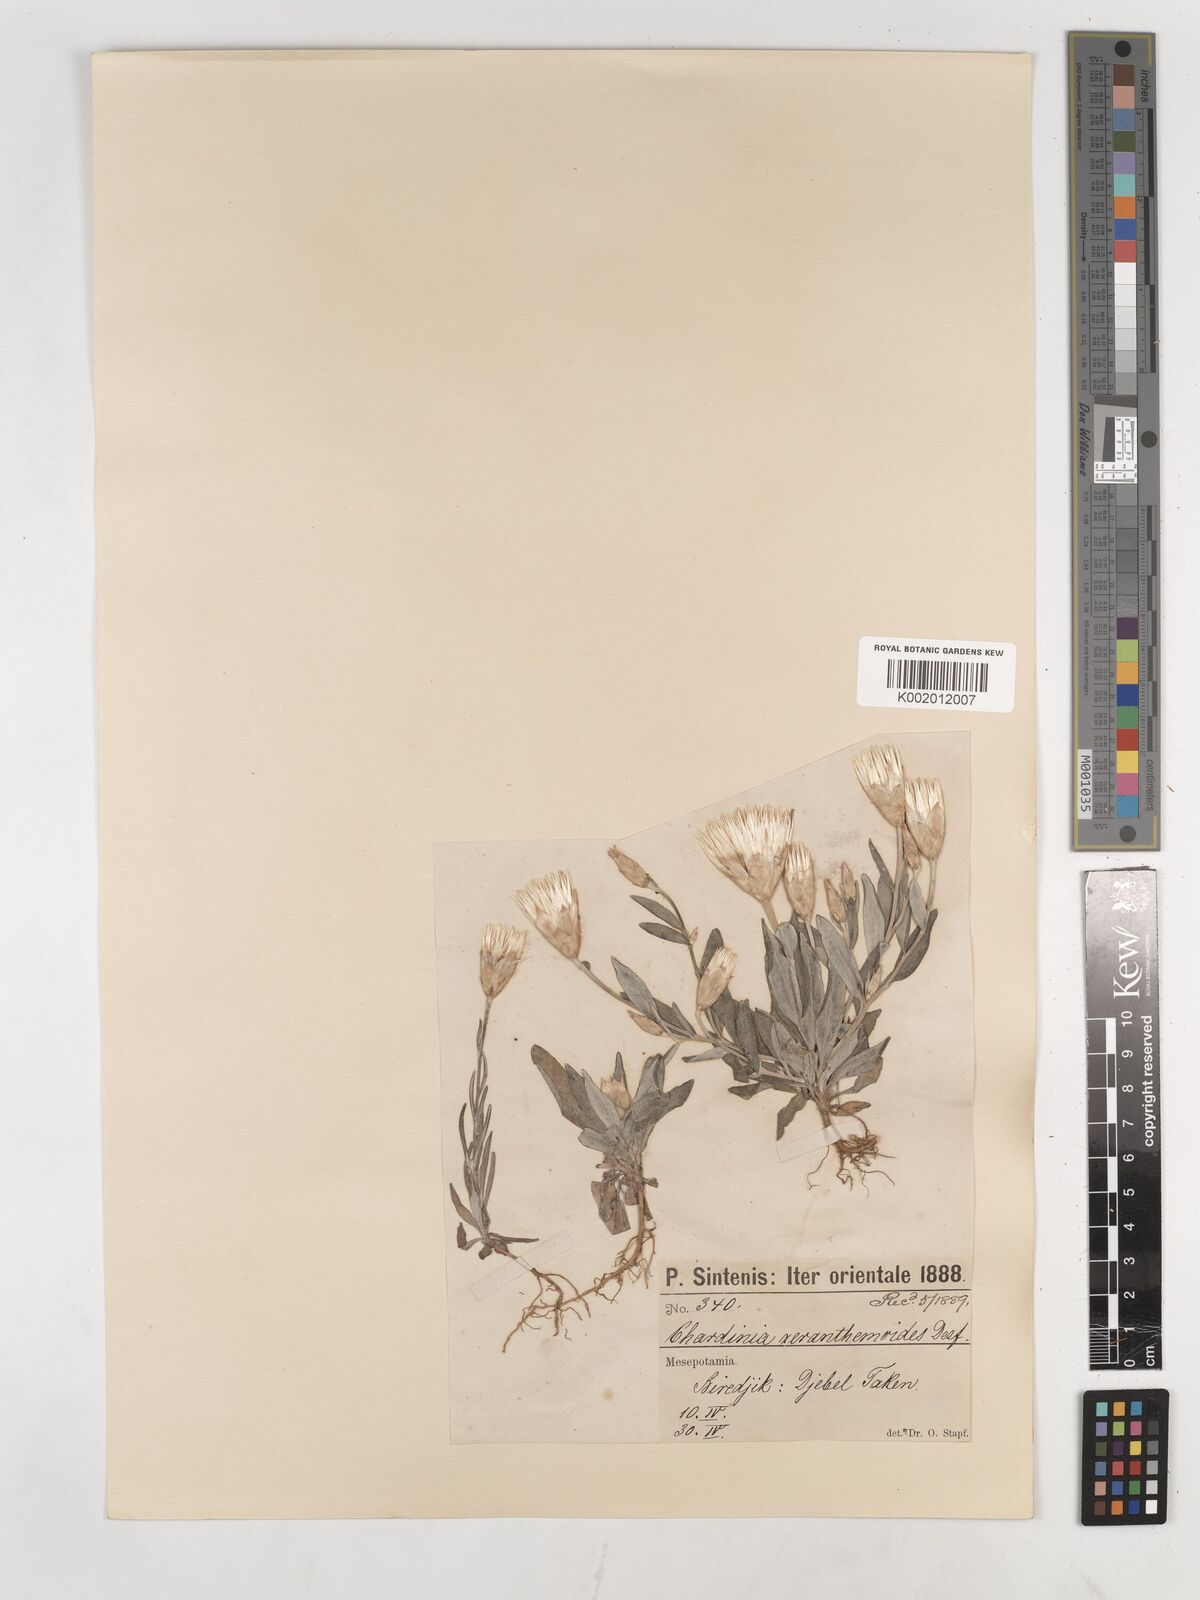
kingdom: Plantae
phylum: Tracheophyta
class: Magnoliopsida
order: Asterales
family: Asteraceae
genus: Chardinia
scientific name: Chardinia orientalis
